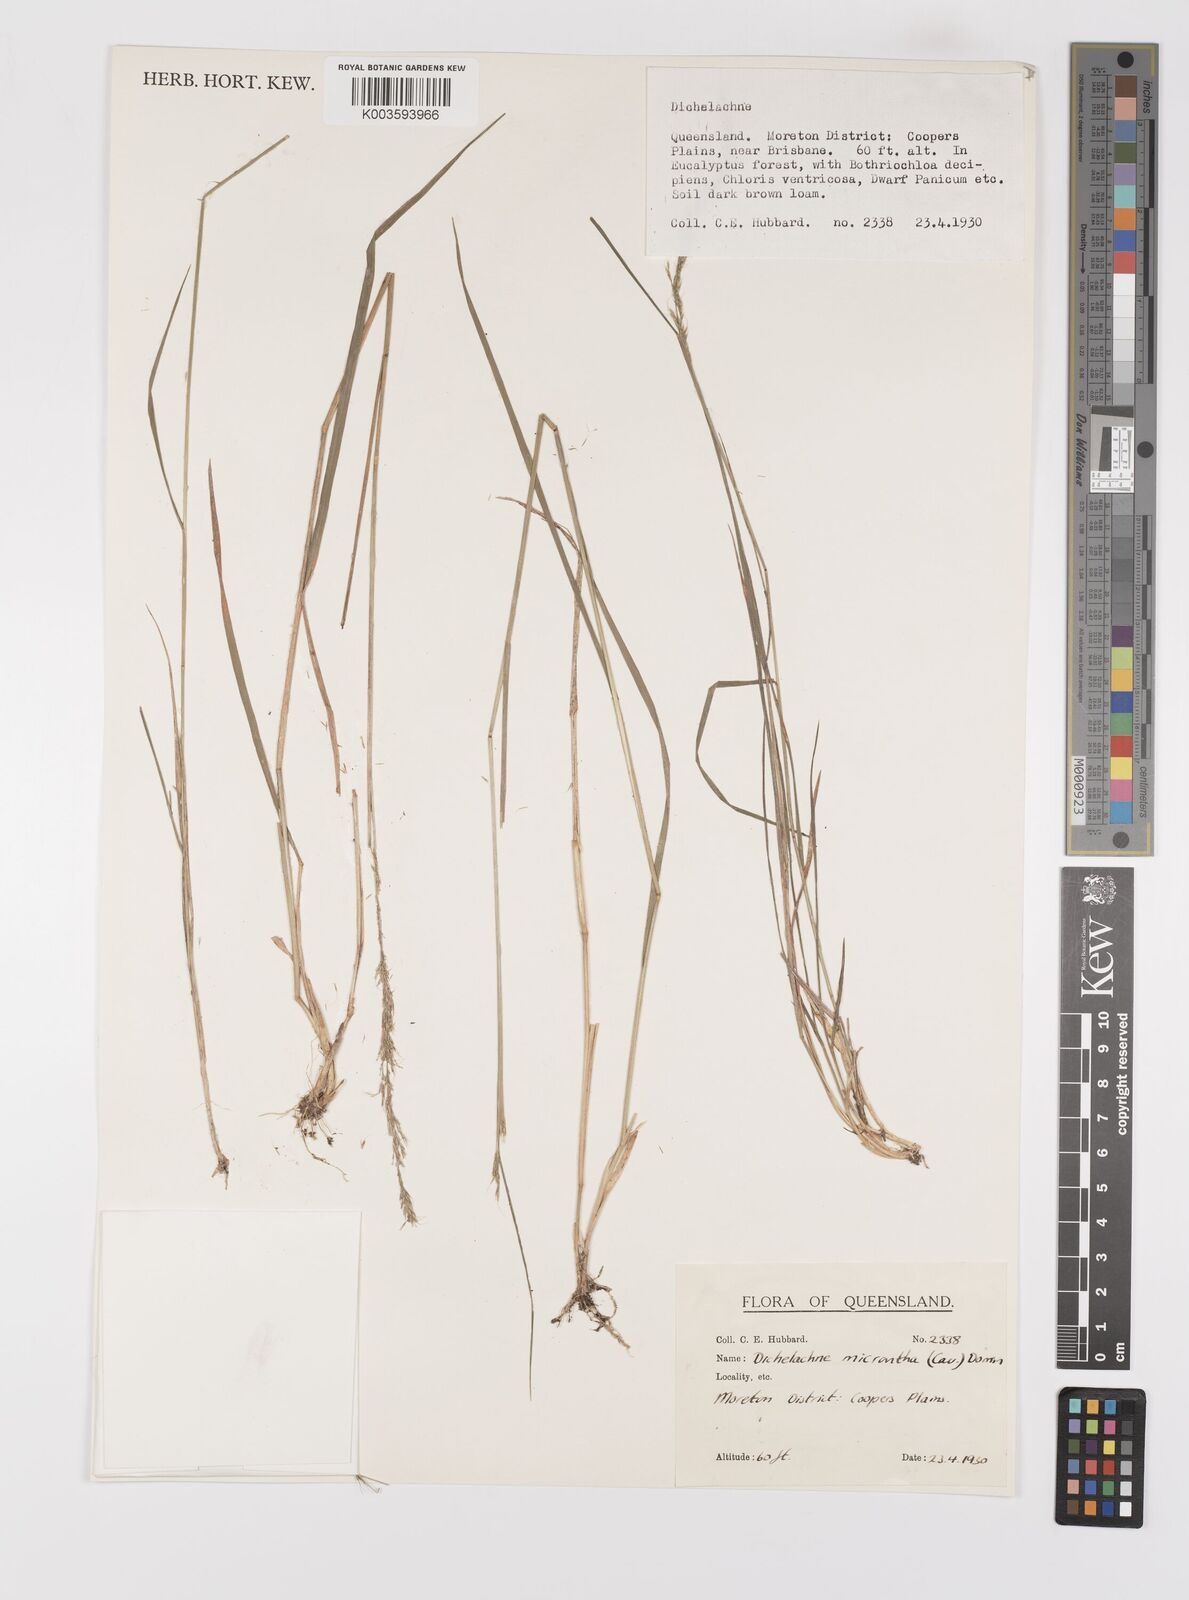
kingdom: Plantae
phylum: Tracheophyta
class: Liliopsida
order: Poales
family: Poaceae
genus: Dichelachne
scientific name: Dichelachne micrantha
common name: Plumegrass
